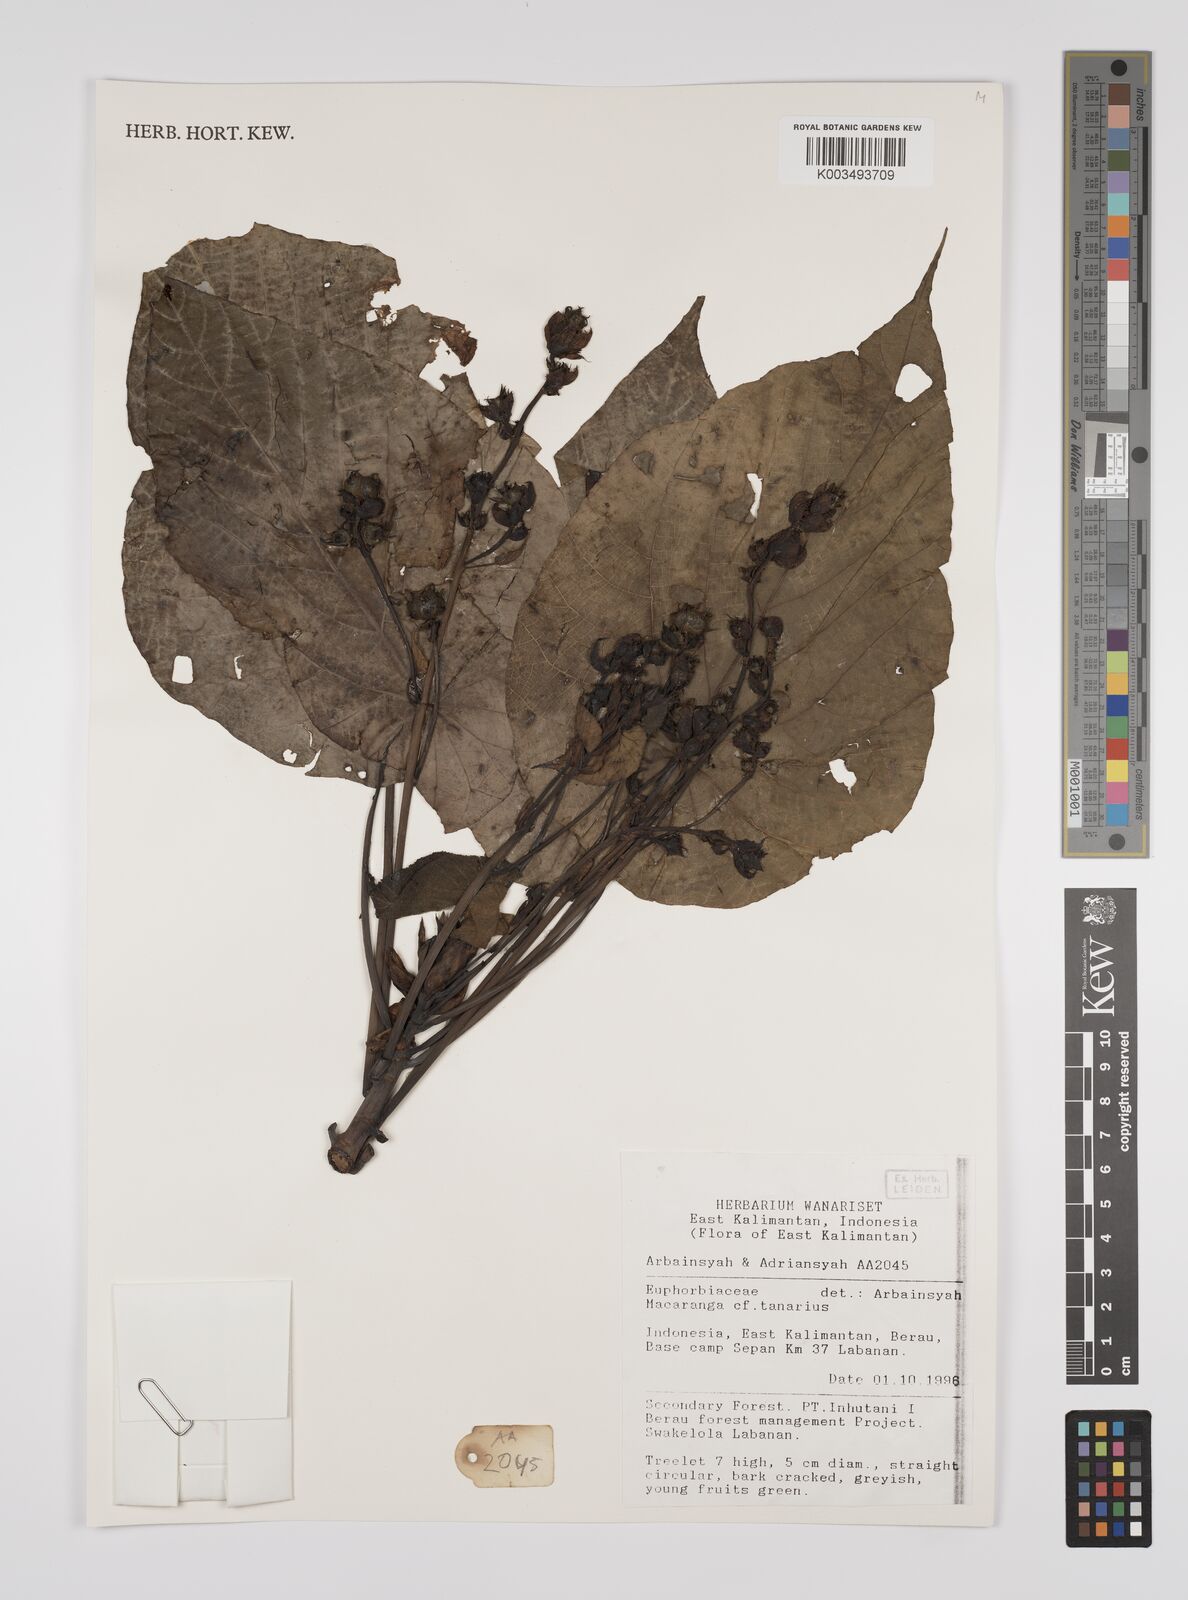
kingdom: Plantae
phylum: Tracheophyta
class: Magnoliopsida
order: Malpighiales
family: Euphorbiaceae
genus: Macaranga
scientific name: Macaranga tanarius
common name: Parasol leaf tree
